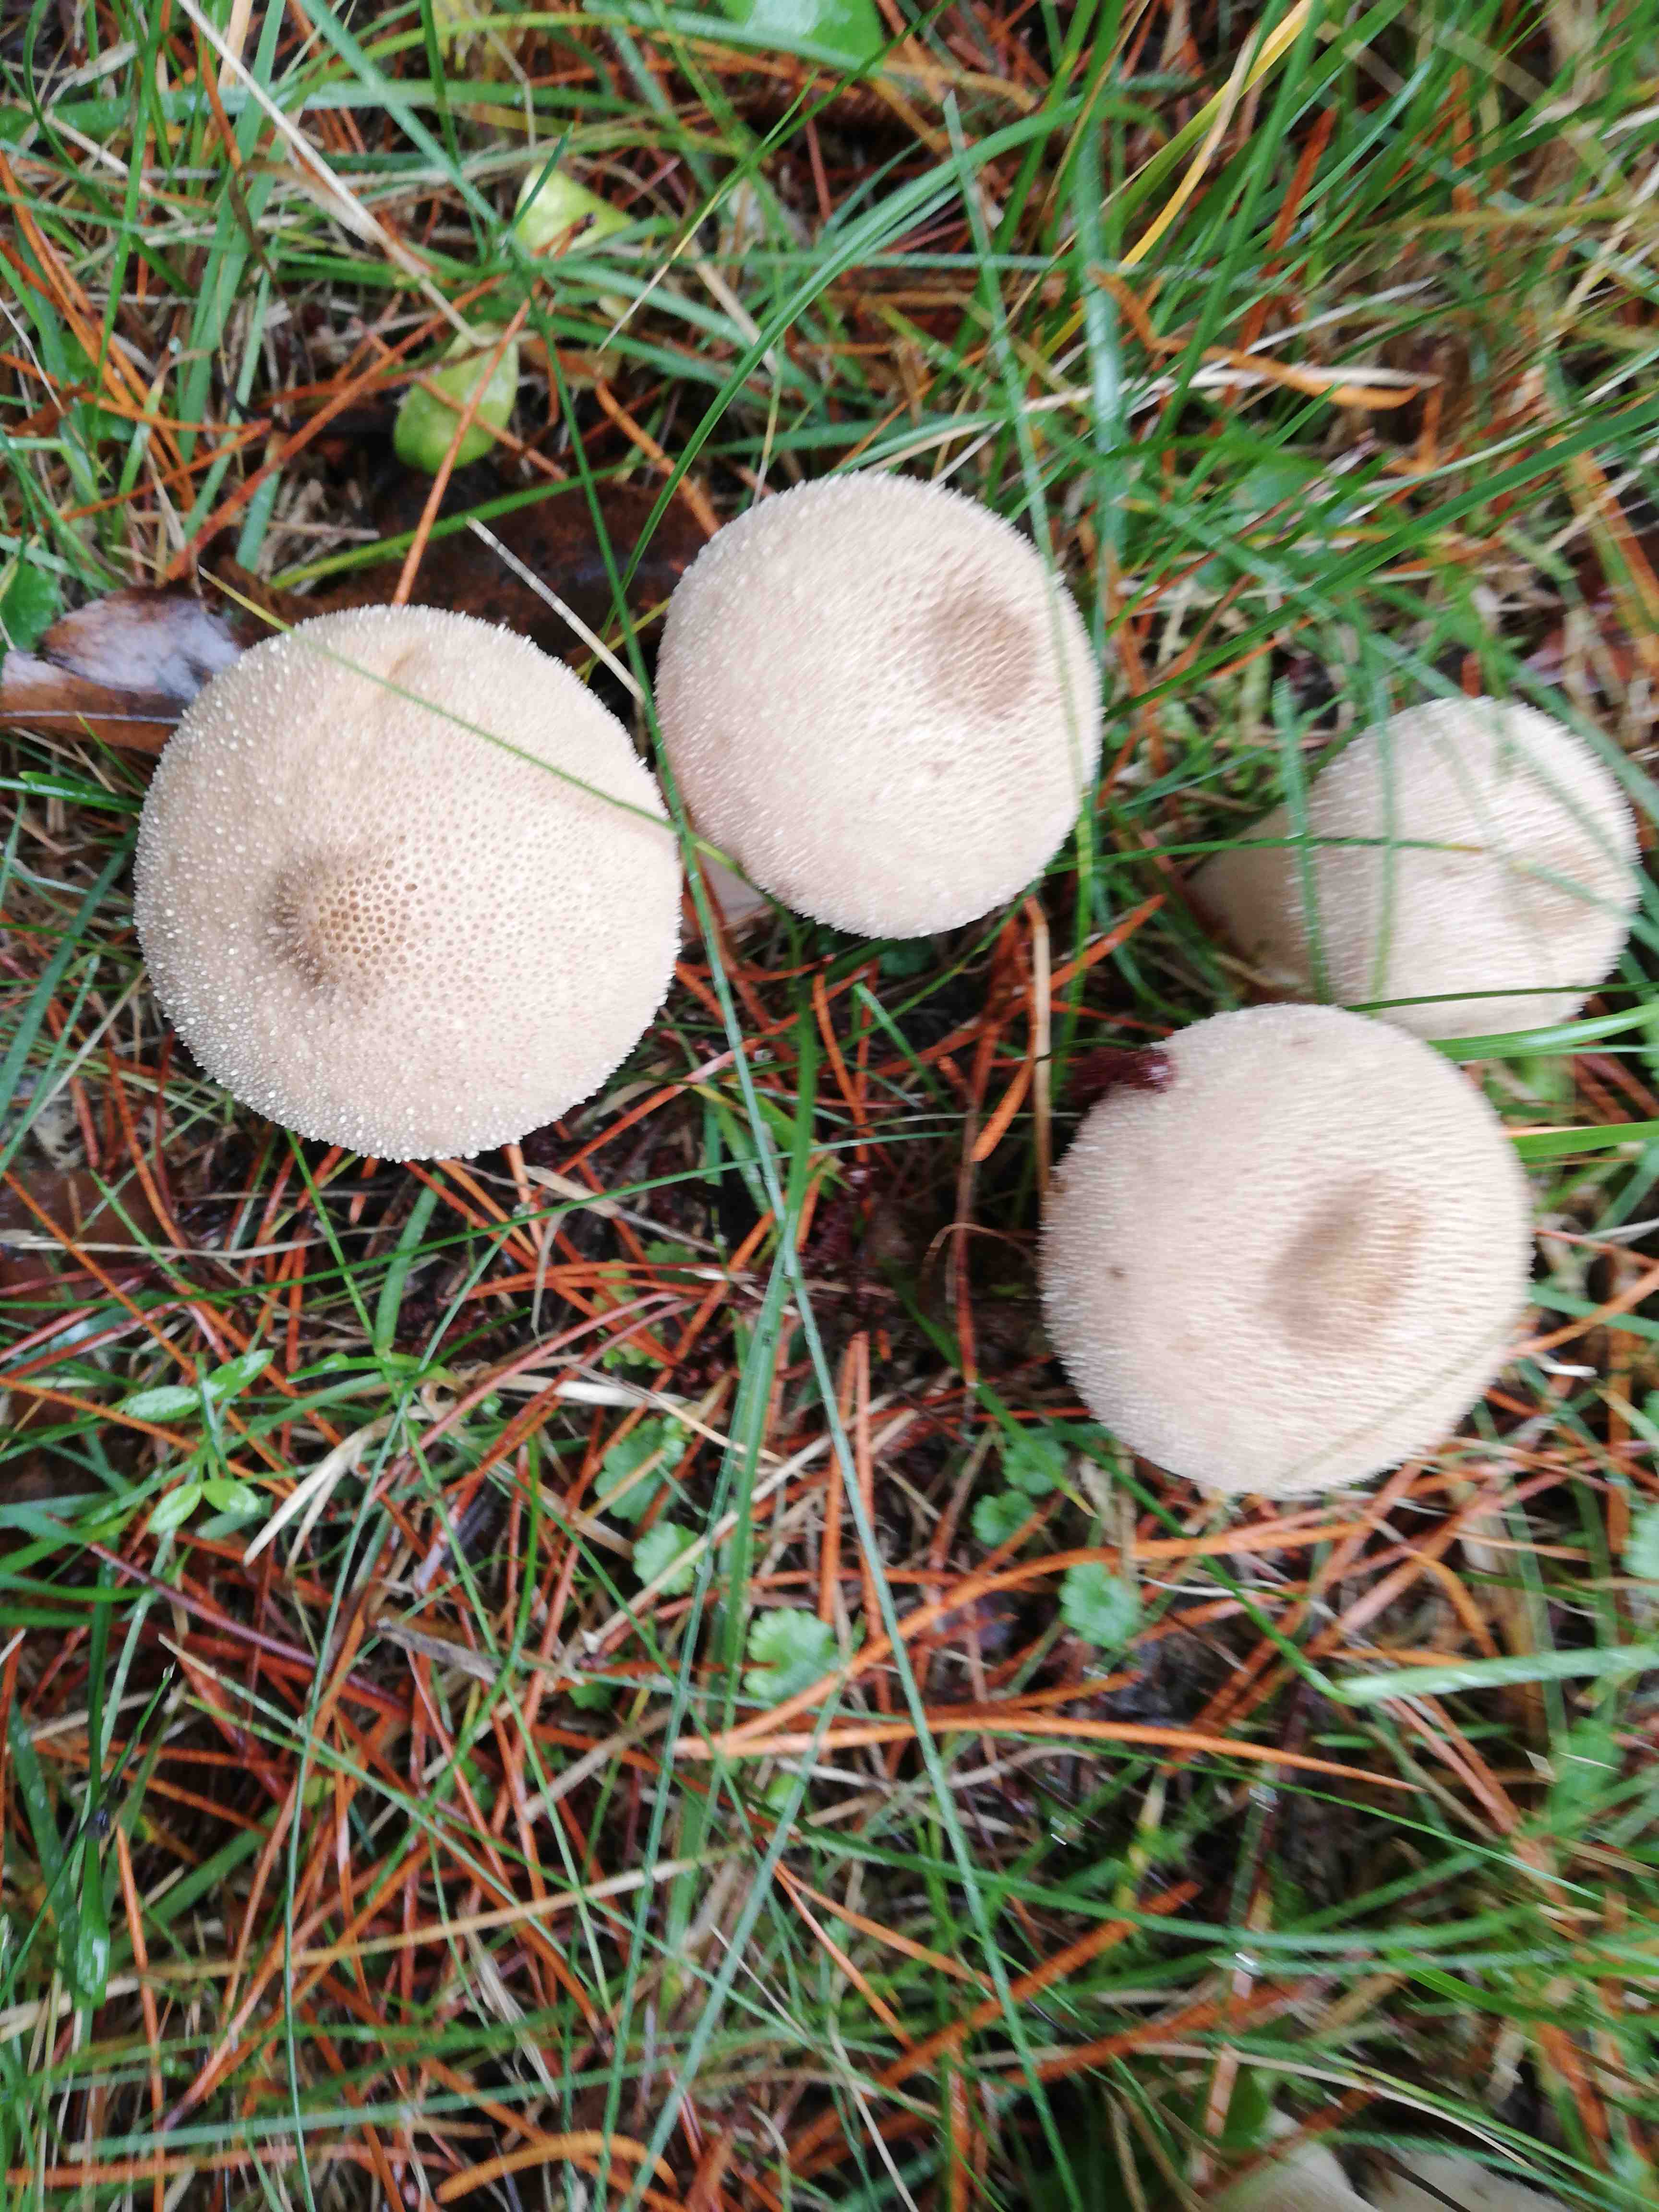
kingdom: Fungi
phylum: Basidiomycota
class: Agaricomycetes
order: Agaricales
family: Lycoperdaceae
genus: Lycoperdon
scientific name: Lycoperdon perlatum
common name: krystal-støvbold
